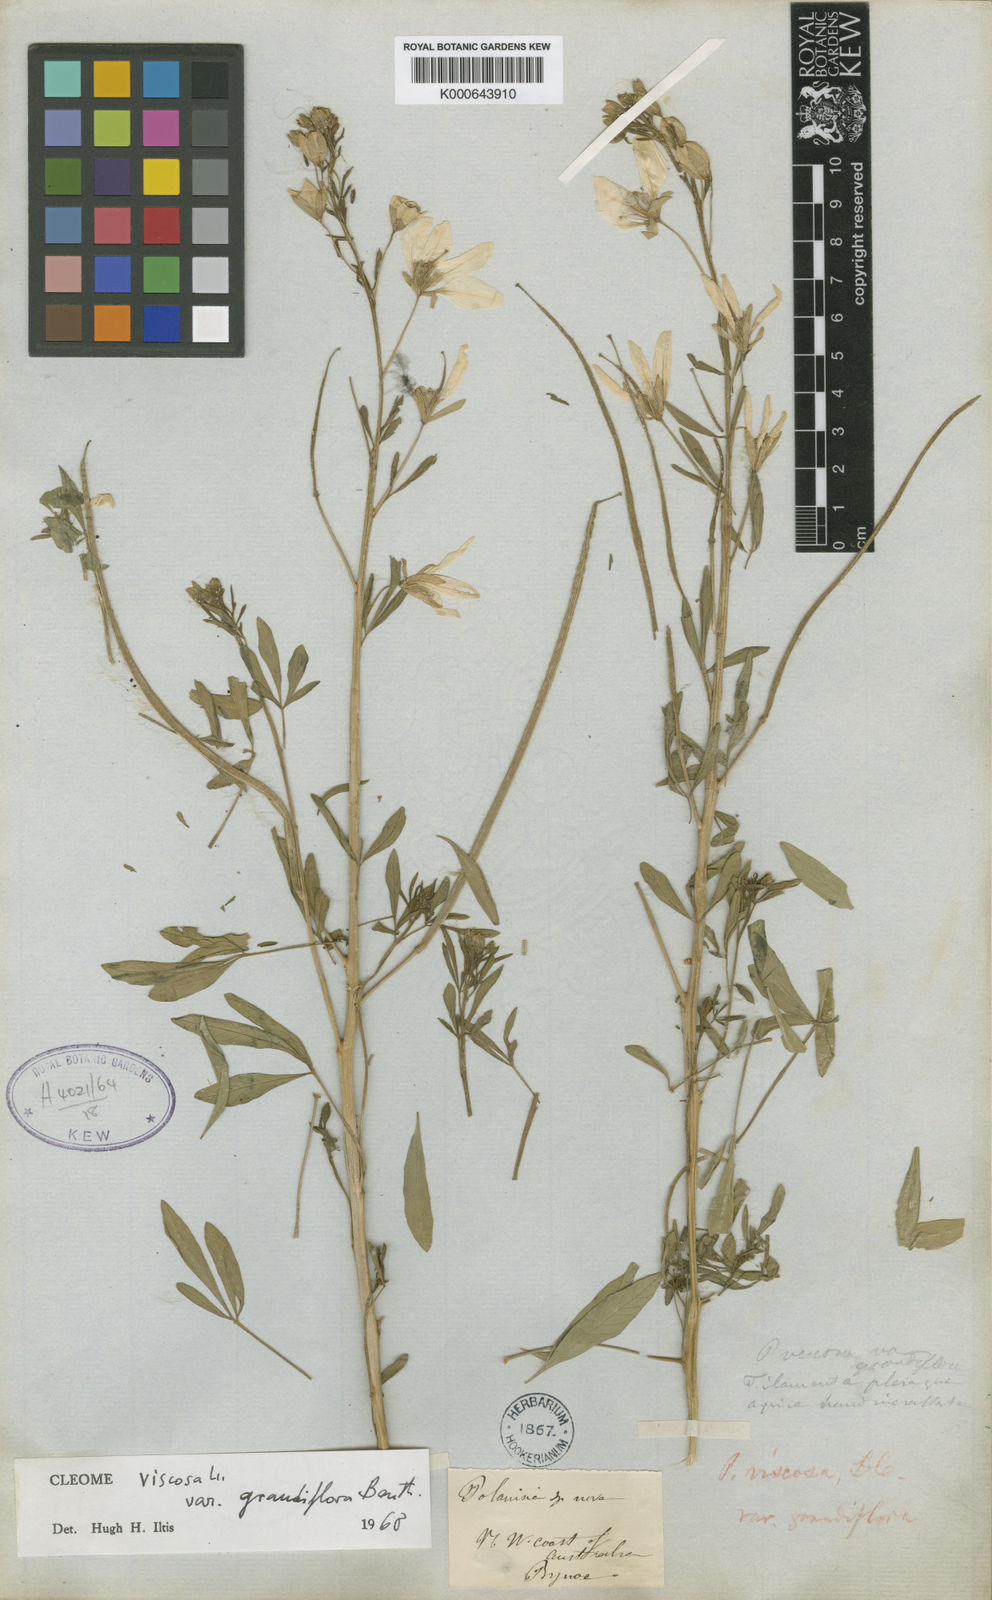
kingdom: Plantae
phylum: Tracheophyta
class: Magnoliopsida
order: Brassicales
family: Cleomaceae
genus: Arivela
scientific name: Arivela viscosa
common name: Asian spiderflower
